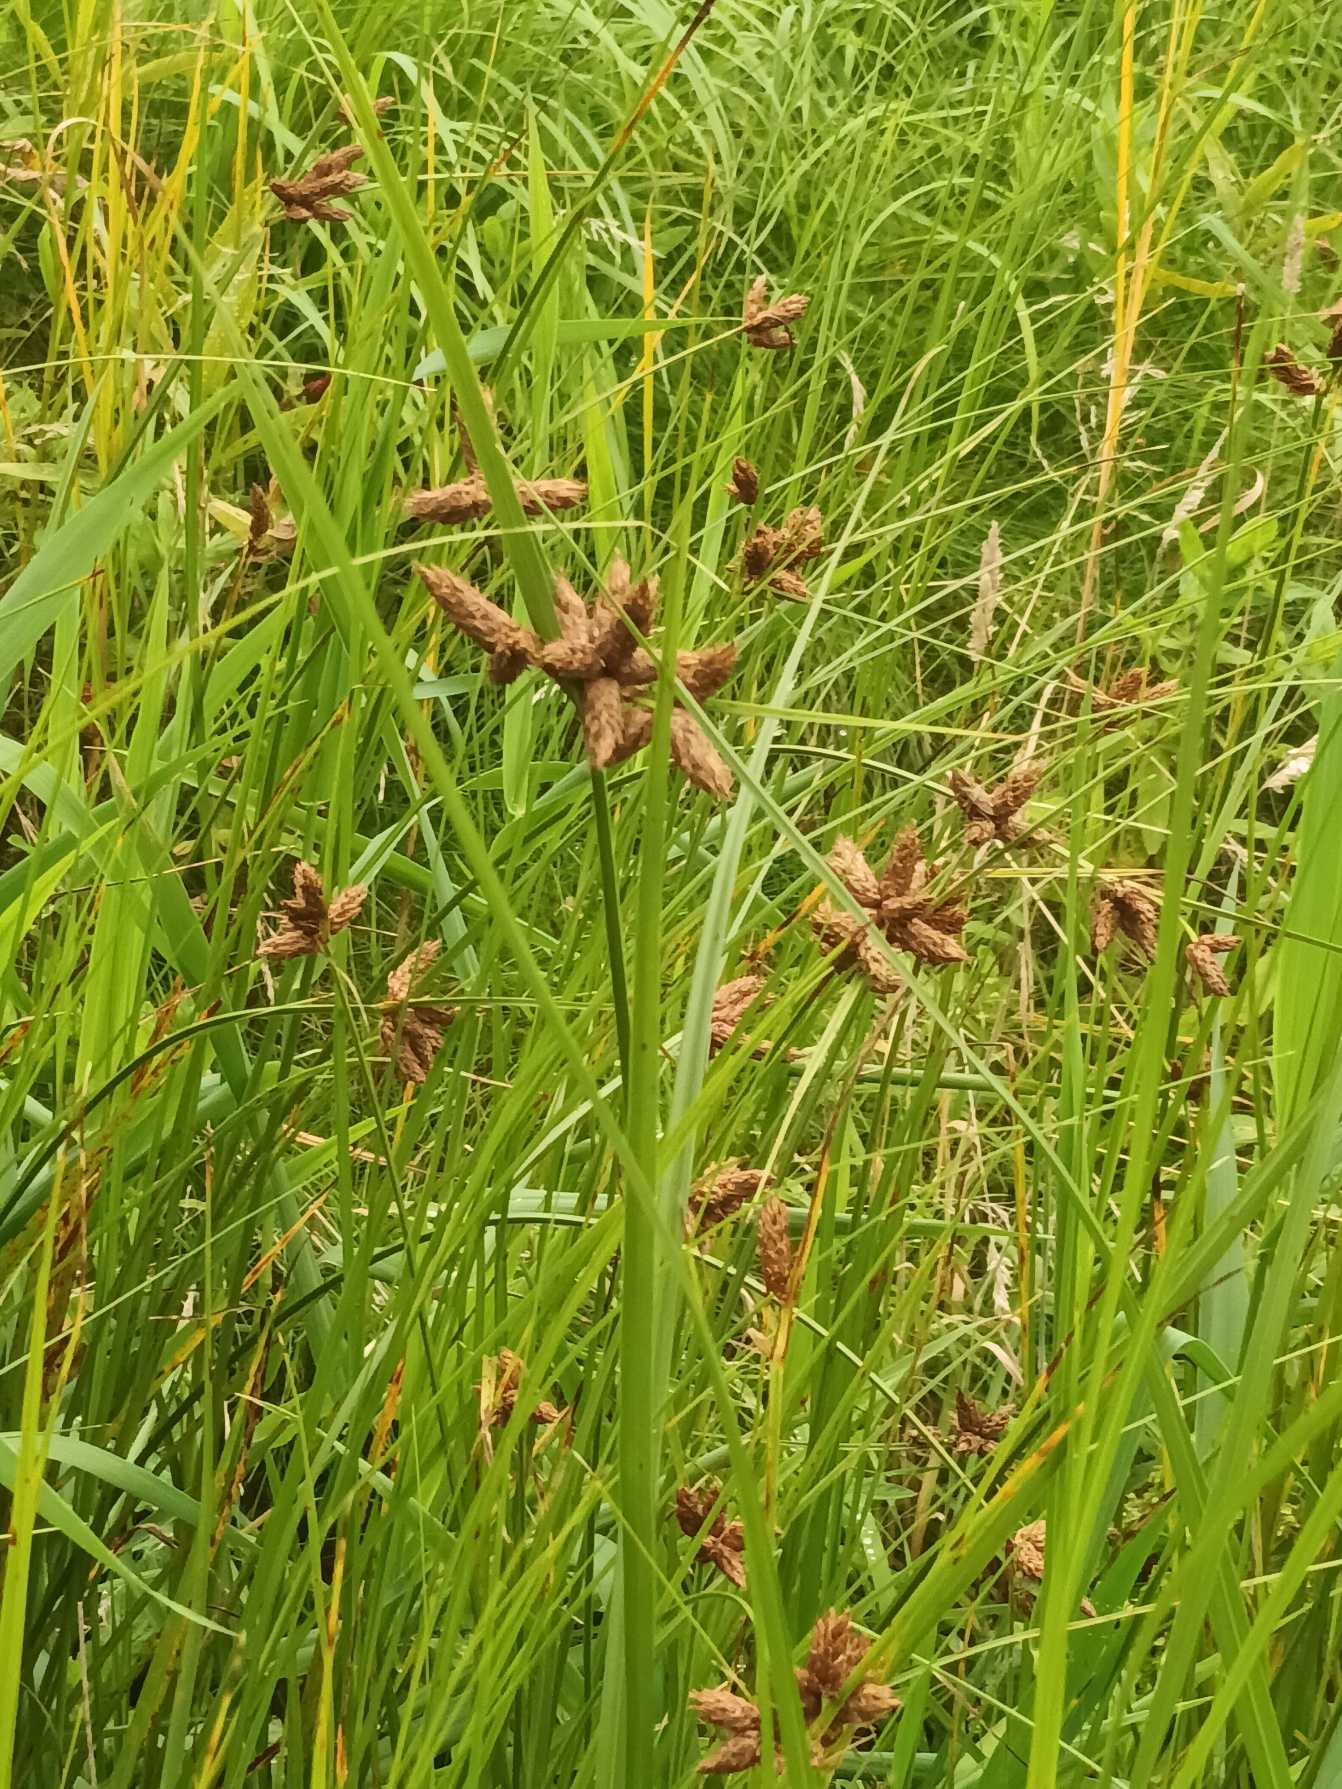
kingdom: Plantae
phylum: Tracheophyta
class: Liliopsida
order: Poales
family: Cyperaceae
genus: Bolboschoenus
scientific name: Bolboschoenus maritimus
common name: Strand-kogleaks
